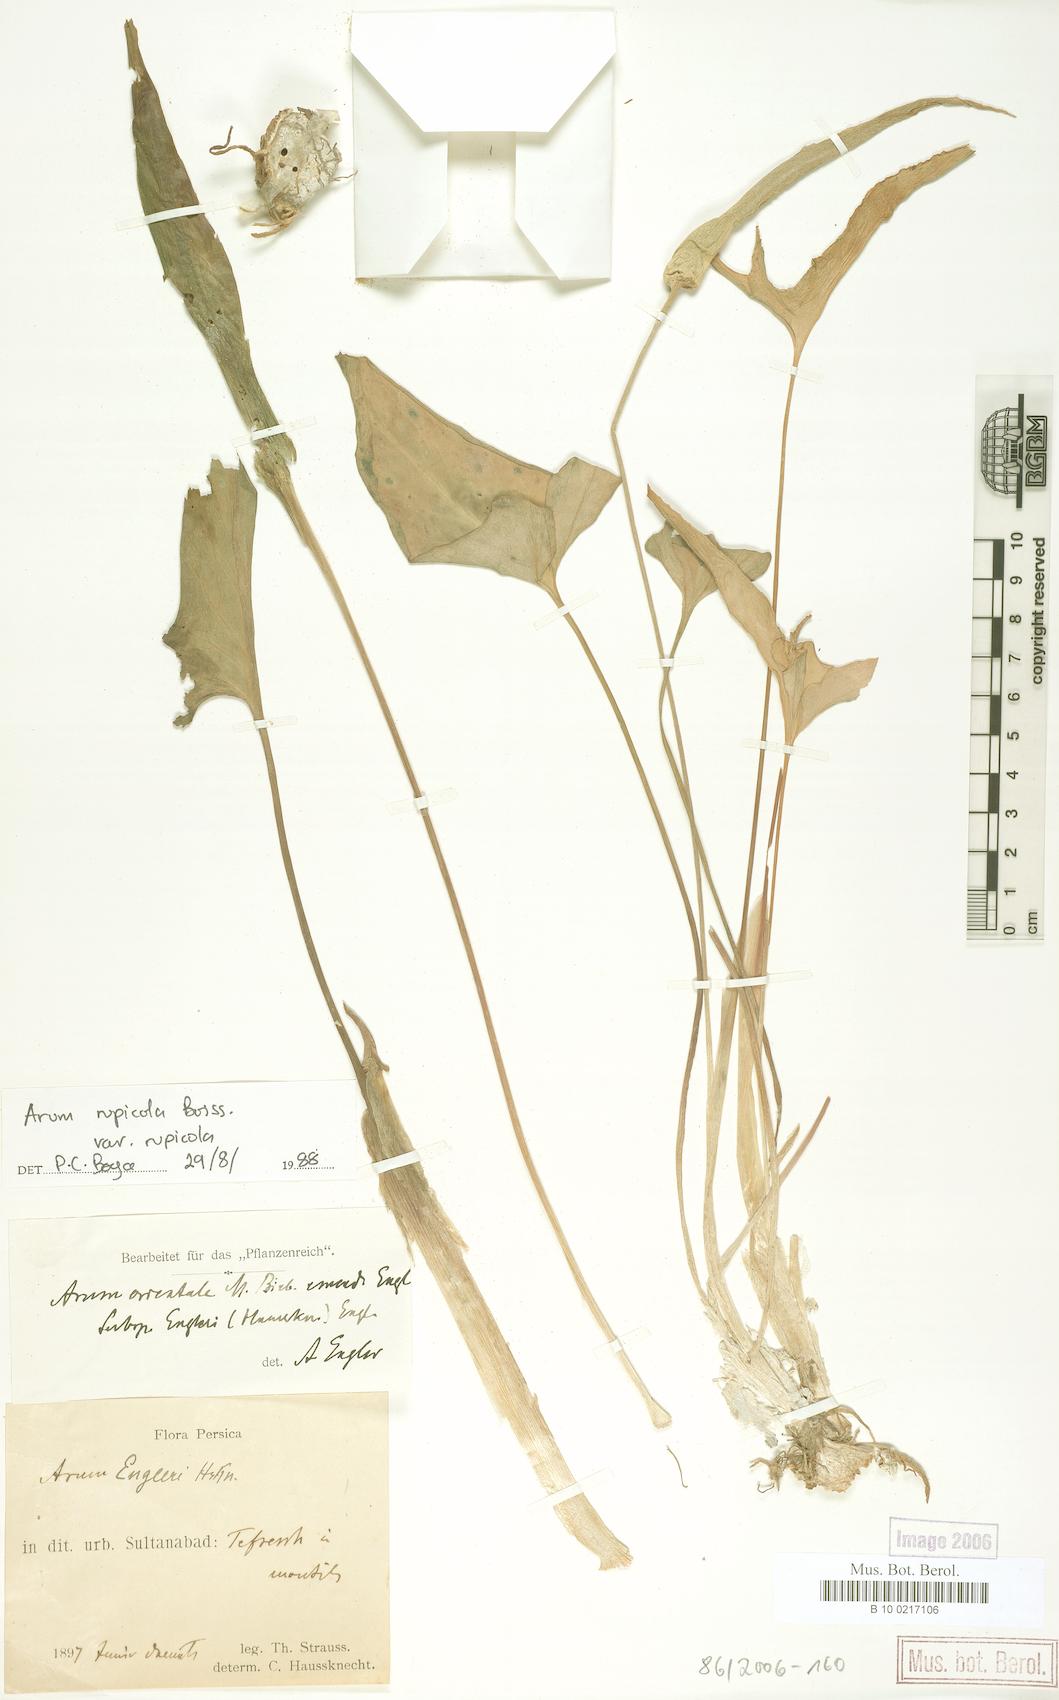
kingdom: Plantae
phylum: Tracheophyta
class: Liliopsida
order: Alismatales
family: Araceae
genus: Arum
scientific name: Arum rupicola
